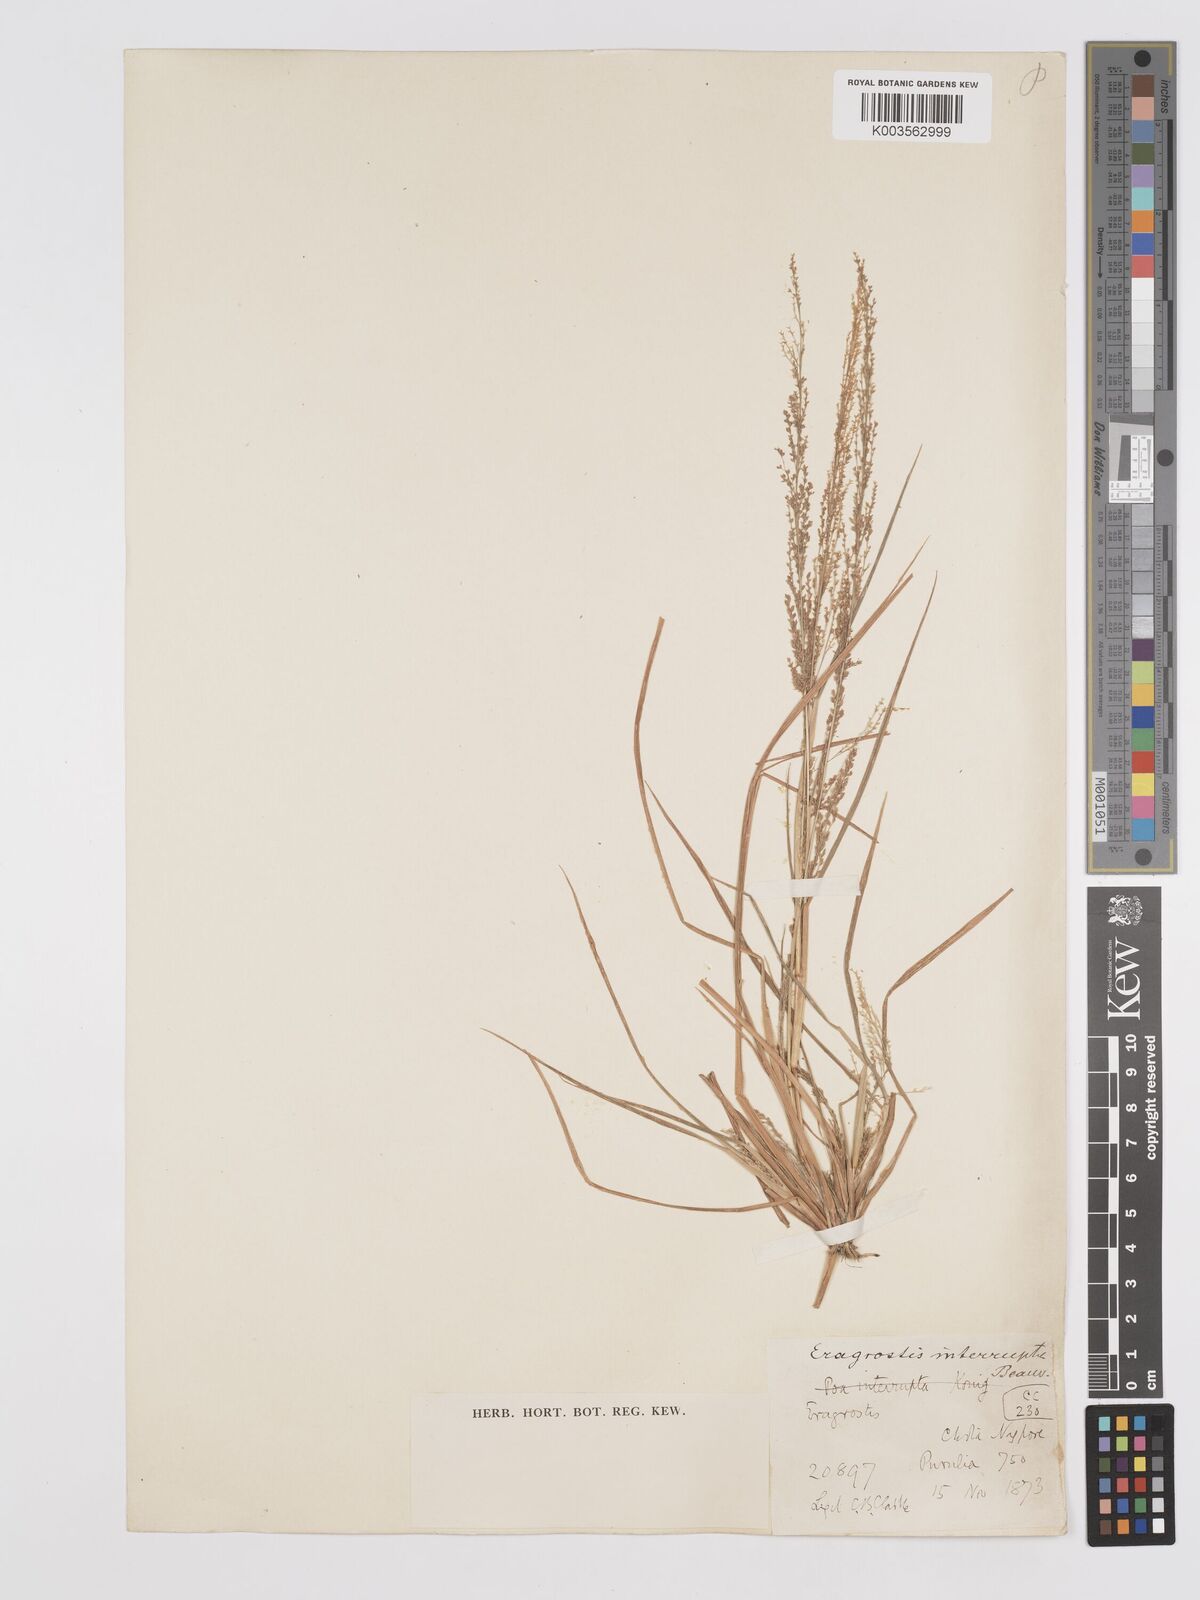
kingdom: Plantae
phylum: Tracheophyta
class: Liliopsida
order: Poales
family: Poaceae
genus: Eragrostis
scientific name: Eragrostis japonica
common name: Pond lovegrass
